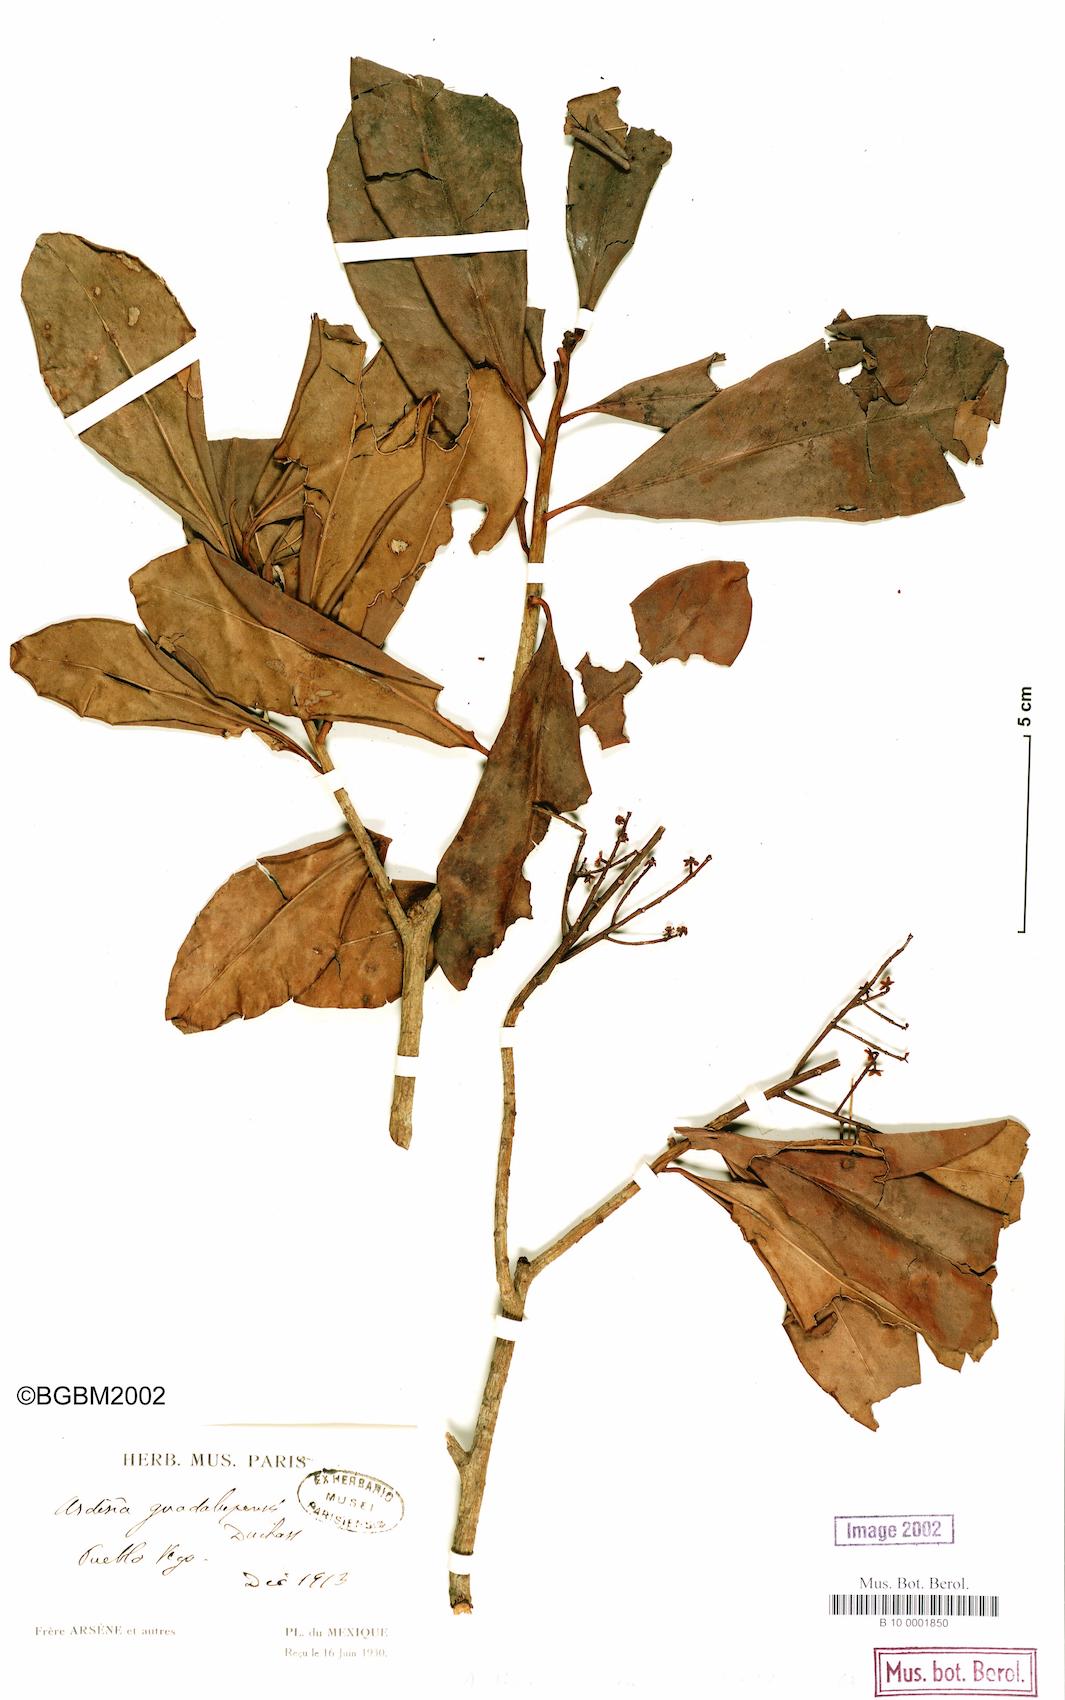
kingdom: Plantae
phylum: Tracheophyta
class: Magnoliopsida
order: Ericales
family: Primulaceae
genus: Myrsine
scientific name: Myrsine coriacea
